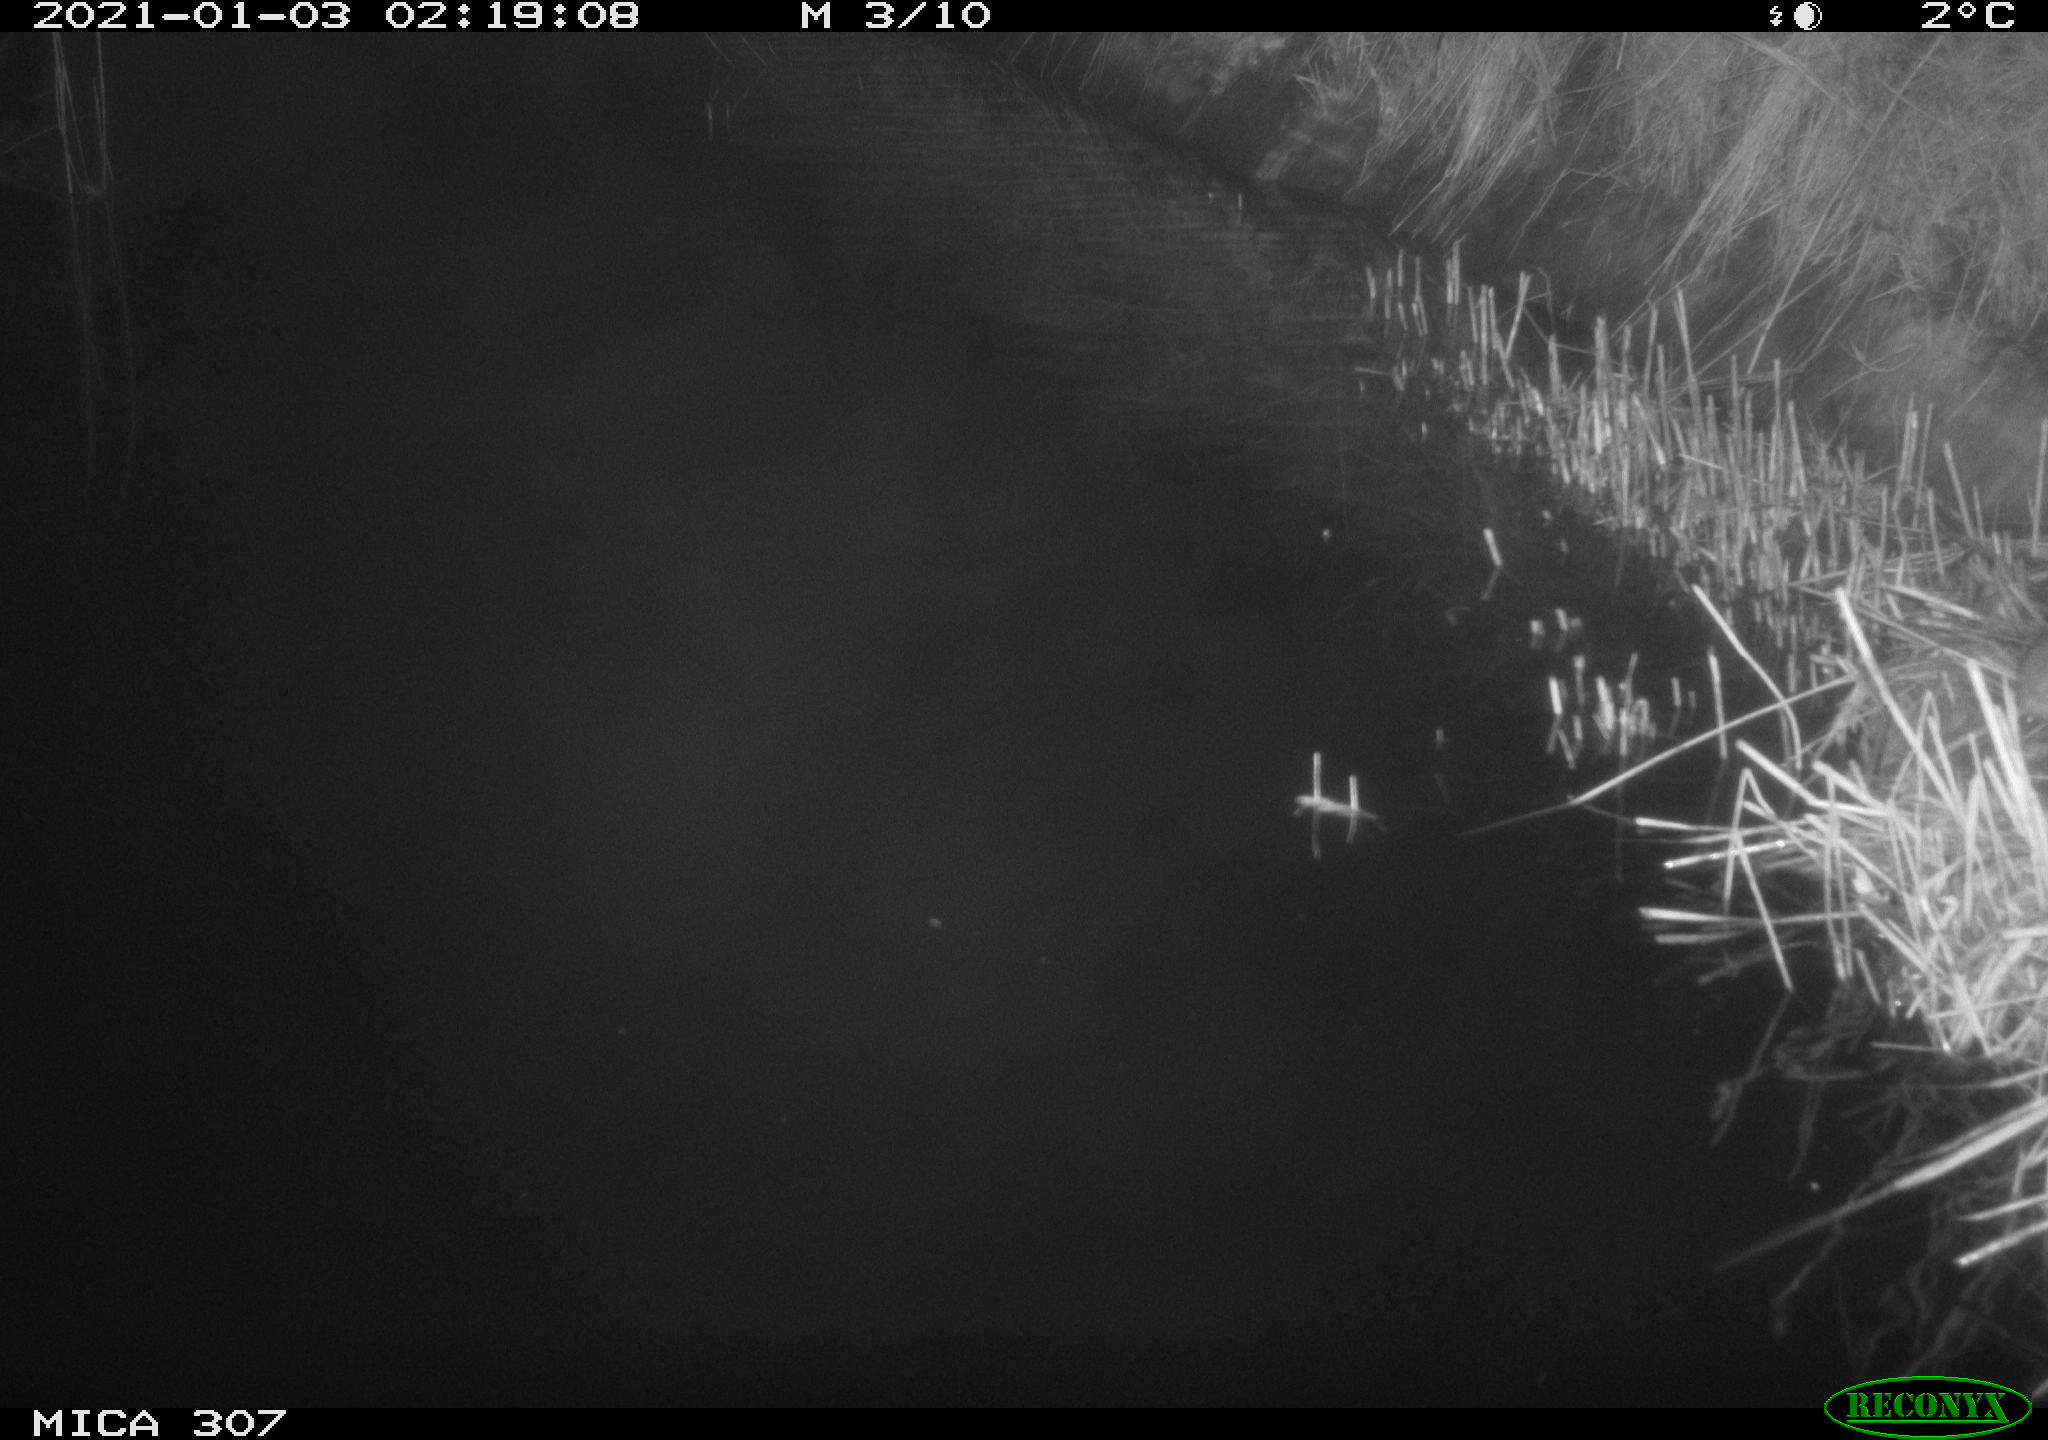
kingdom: Animalia
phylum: Chordata
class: Mammalia
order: Rodentia
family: Muridae
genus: Rattus
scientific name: Rattus norvegicus
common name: Brown rat
